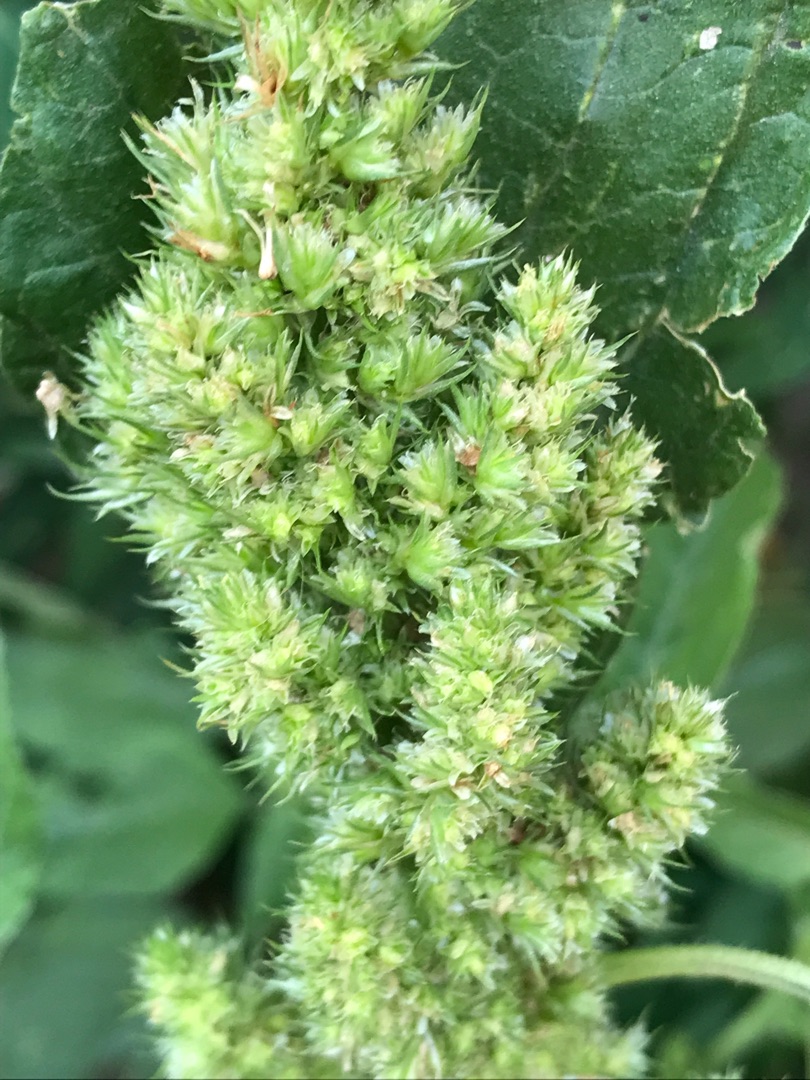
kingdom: Plantae
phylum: Tracheophyta
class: Magnoliopsida
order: Caryophyllales
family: Amaranthaceae
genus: Amaranthus
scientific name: Amaranthus retroflexus
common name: Opret amarant
